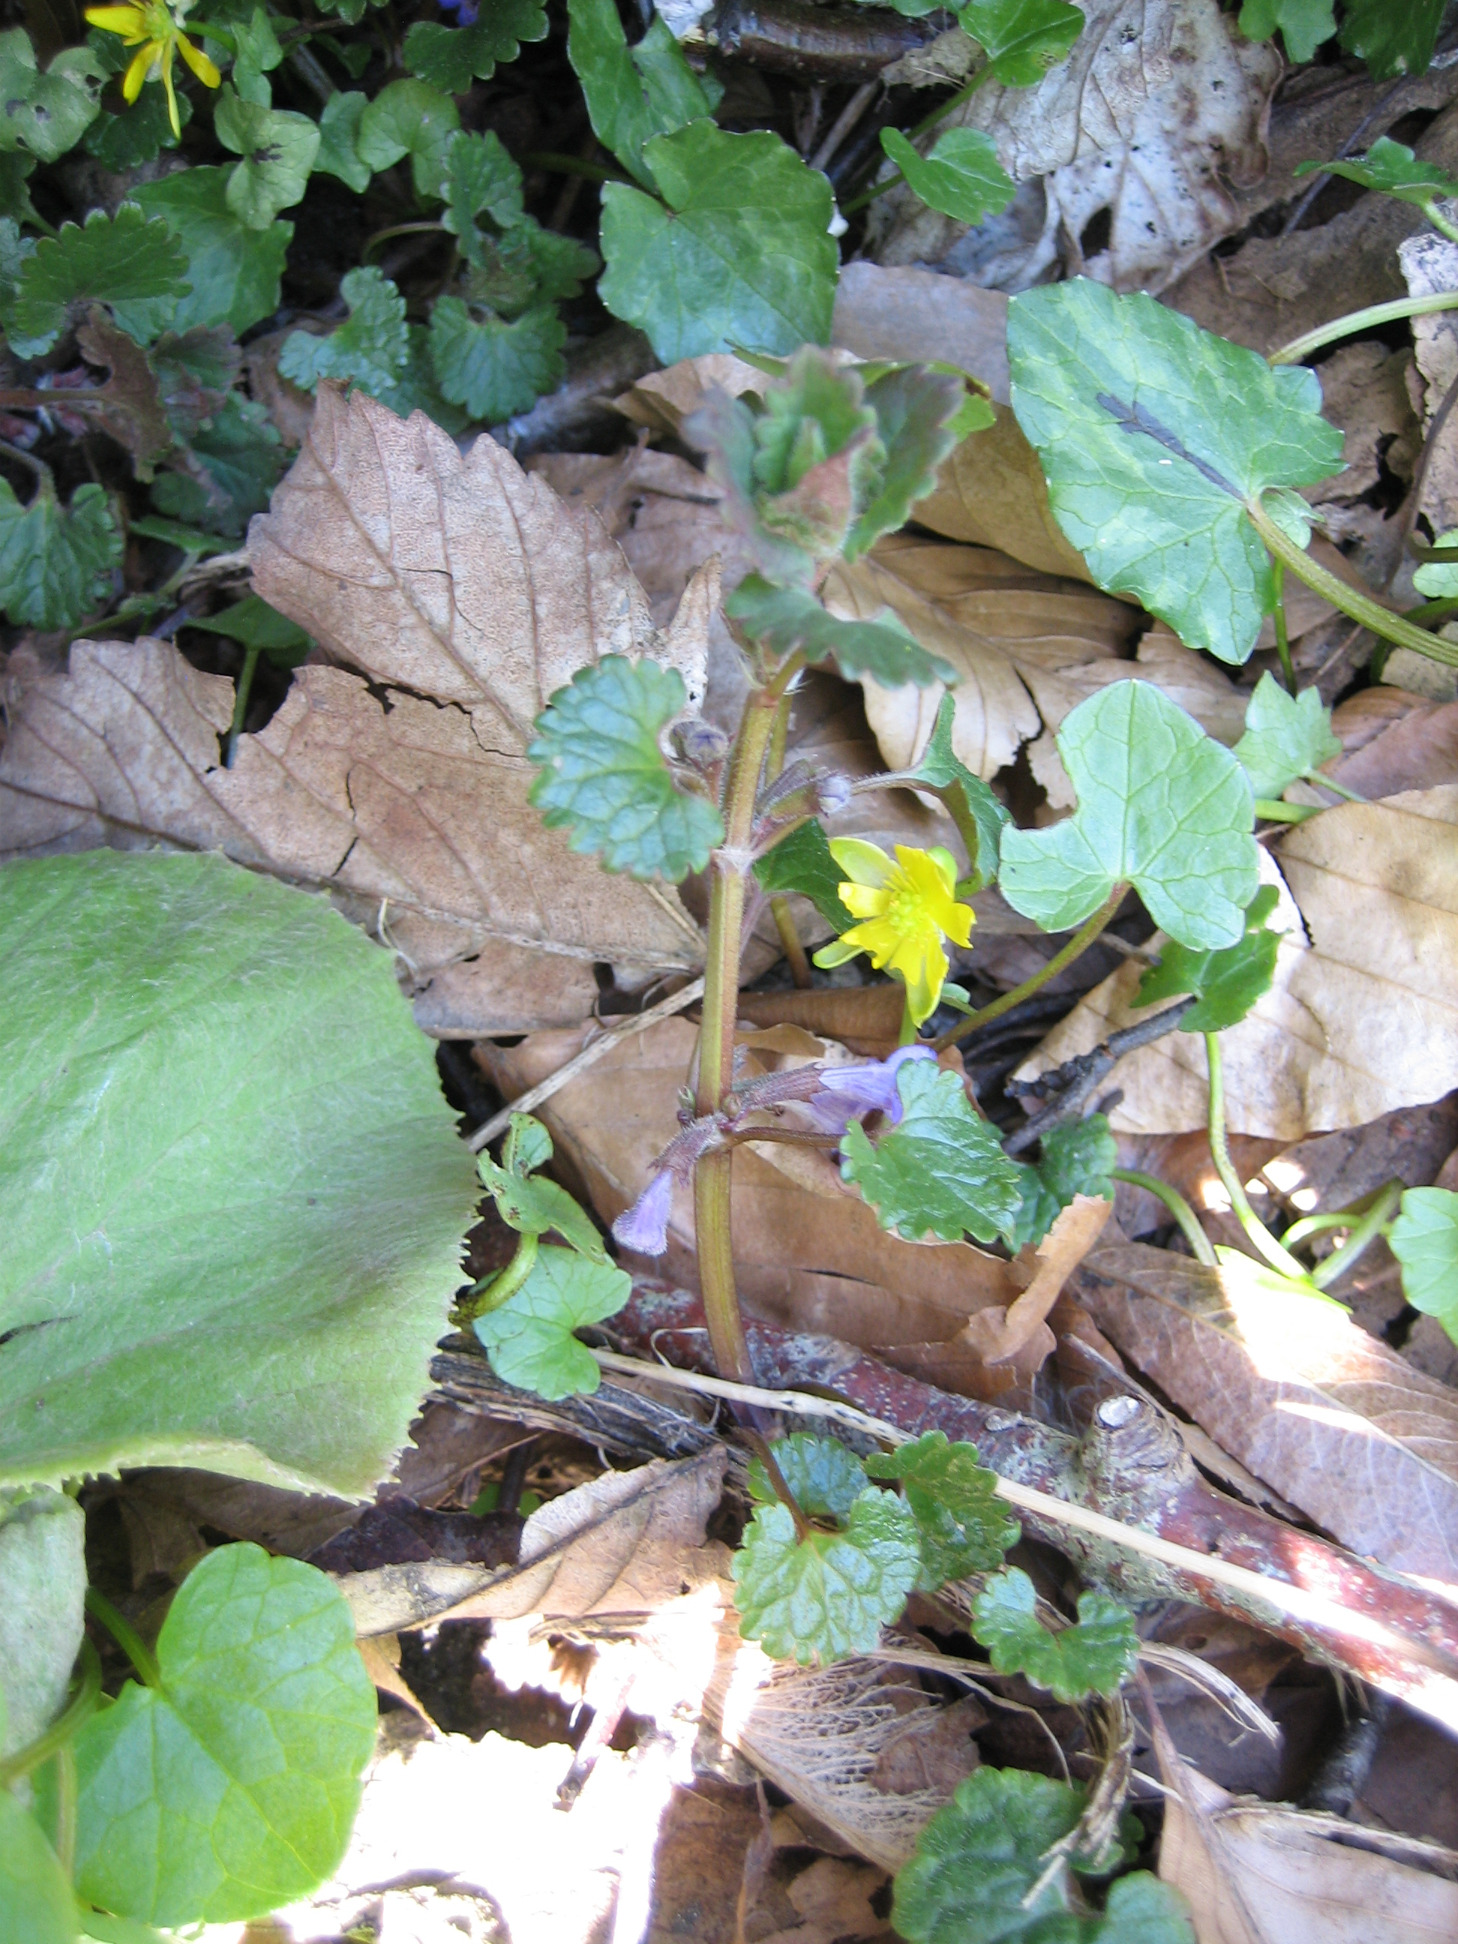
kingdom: Plantae
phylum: Tracheophyta
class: Magnoliopsida
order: Lamiales
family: Lamiaceae
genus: Glechoma
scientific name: Glechoma hederacea
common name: Korsknap
